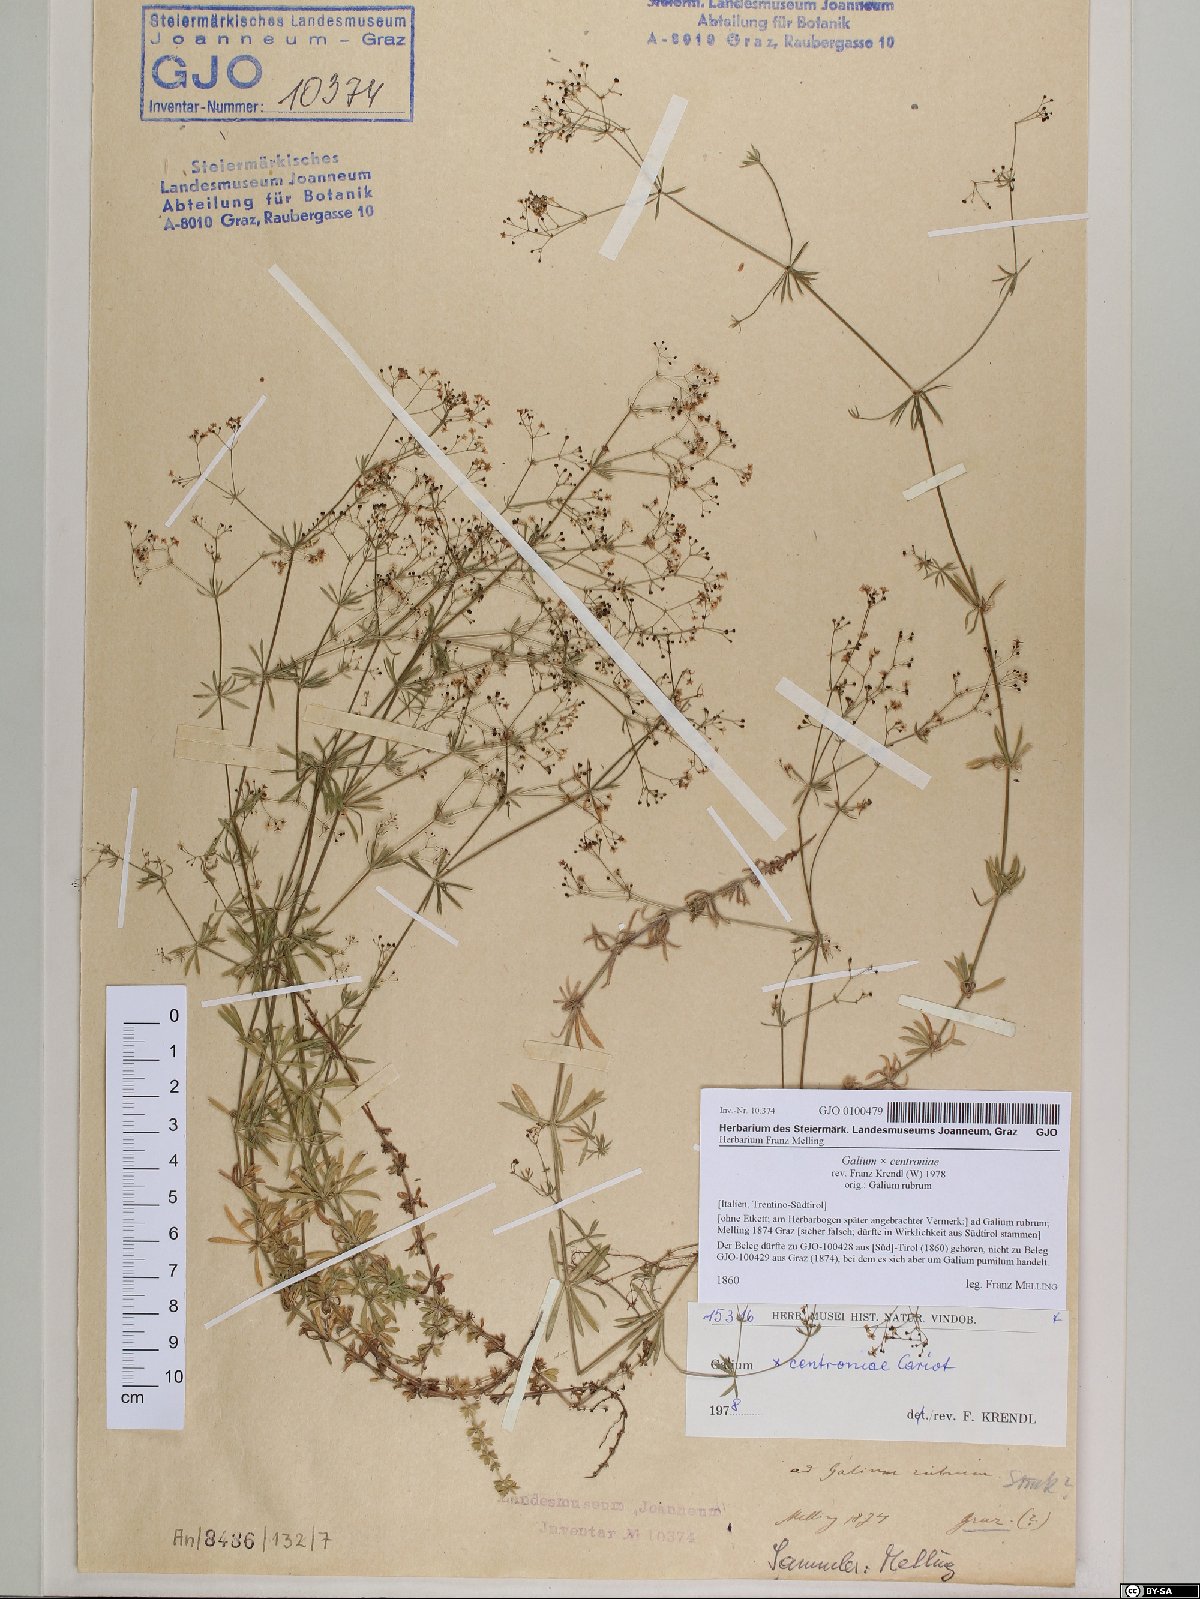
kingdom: Plantae
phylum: Tracheophyta
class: Magnoliopsida
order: Gentianales
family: Rubiaceae
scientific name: Rubiaceae
